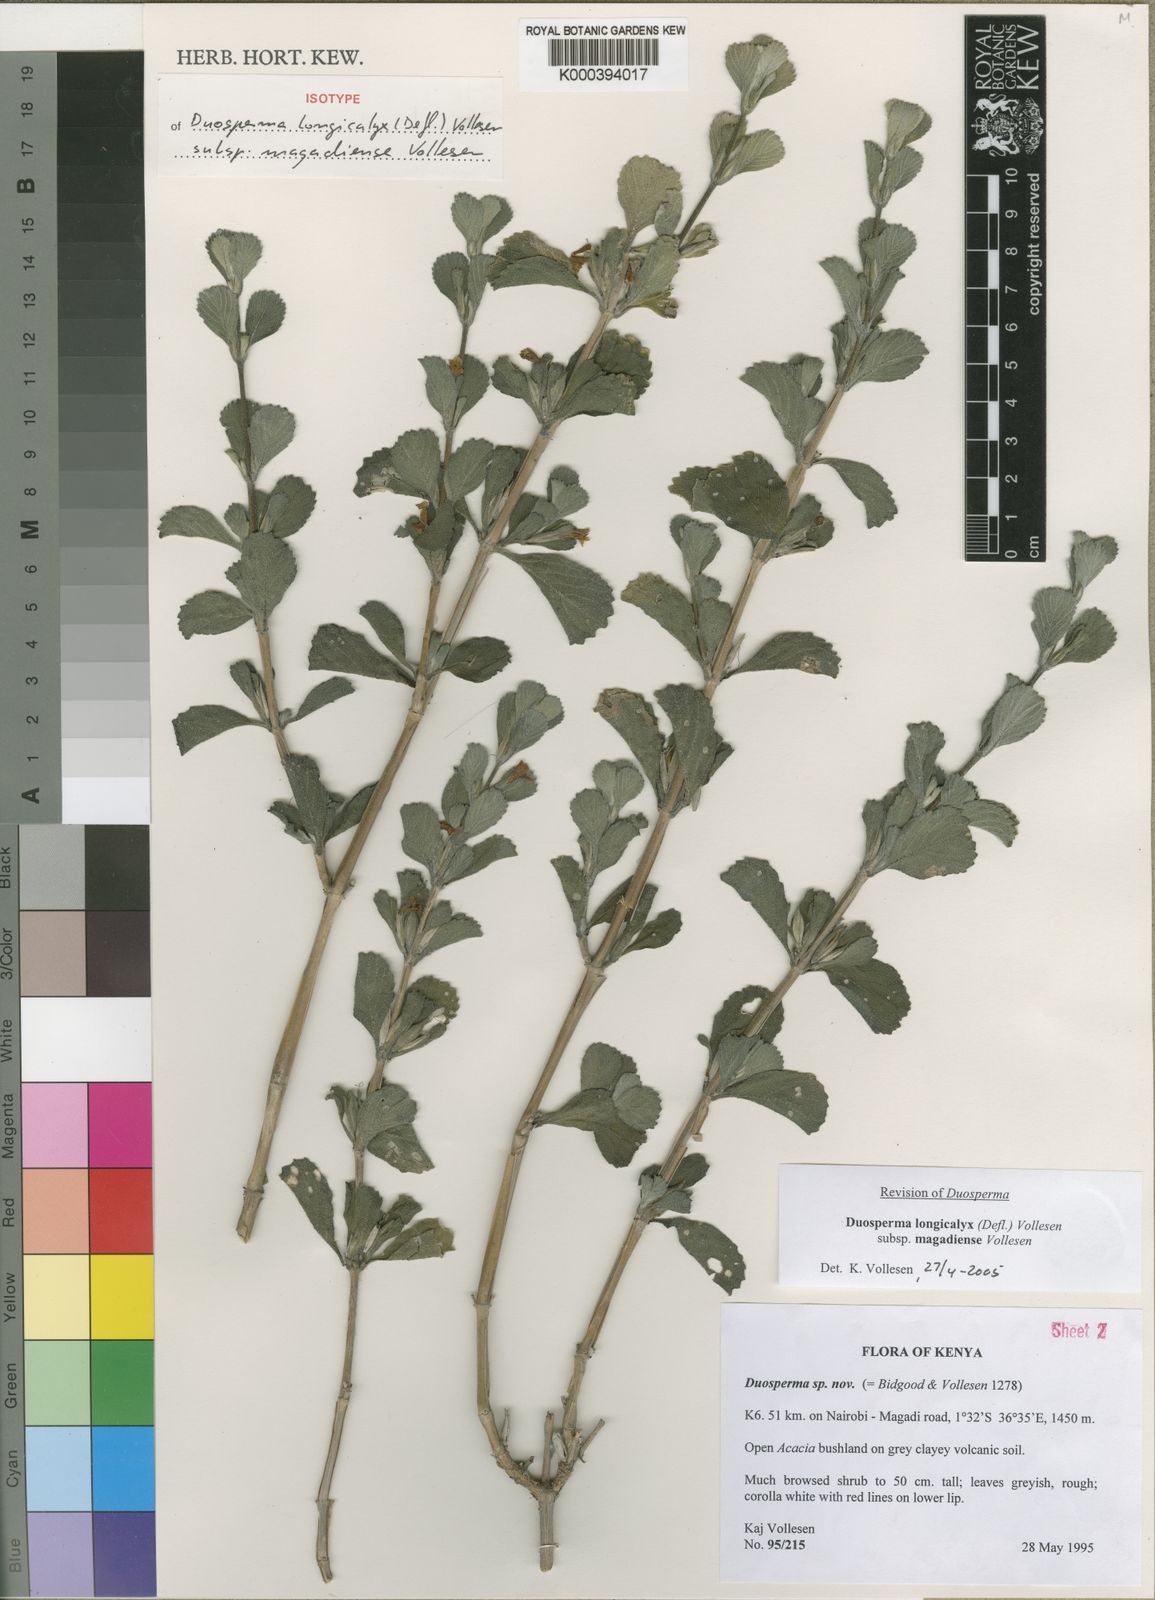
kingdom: Plantae
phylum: Tracheophyta
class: Magnoliopsida
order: Lamiales
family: Acanthaceae
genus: Duosperma
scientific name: Duosperma longicalyx
